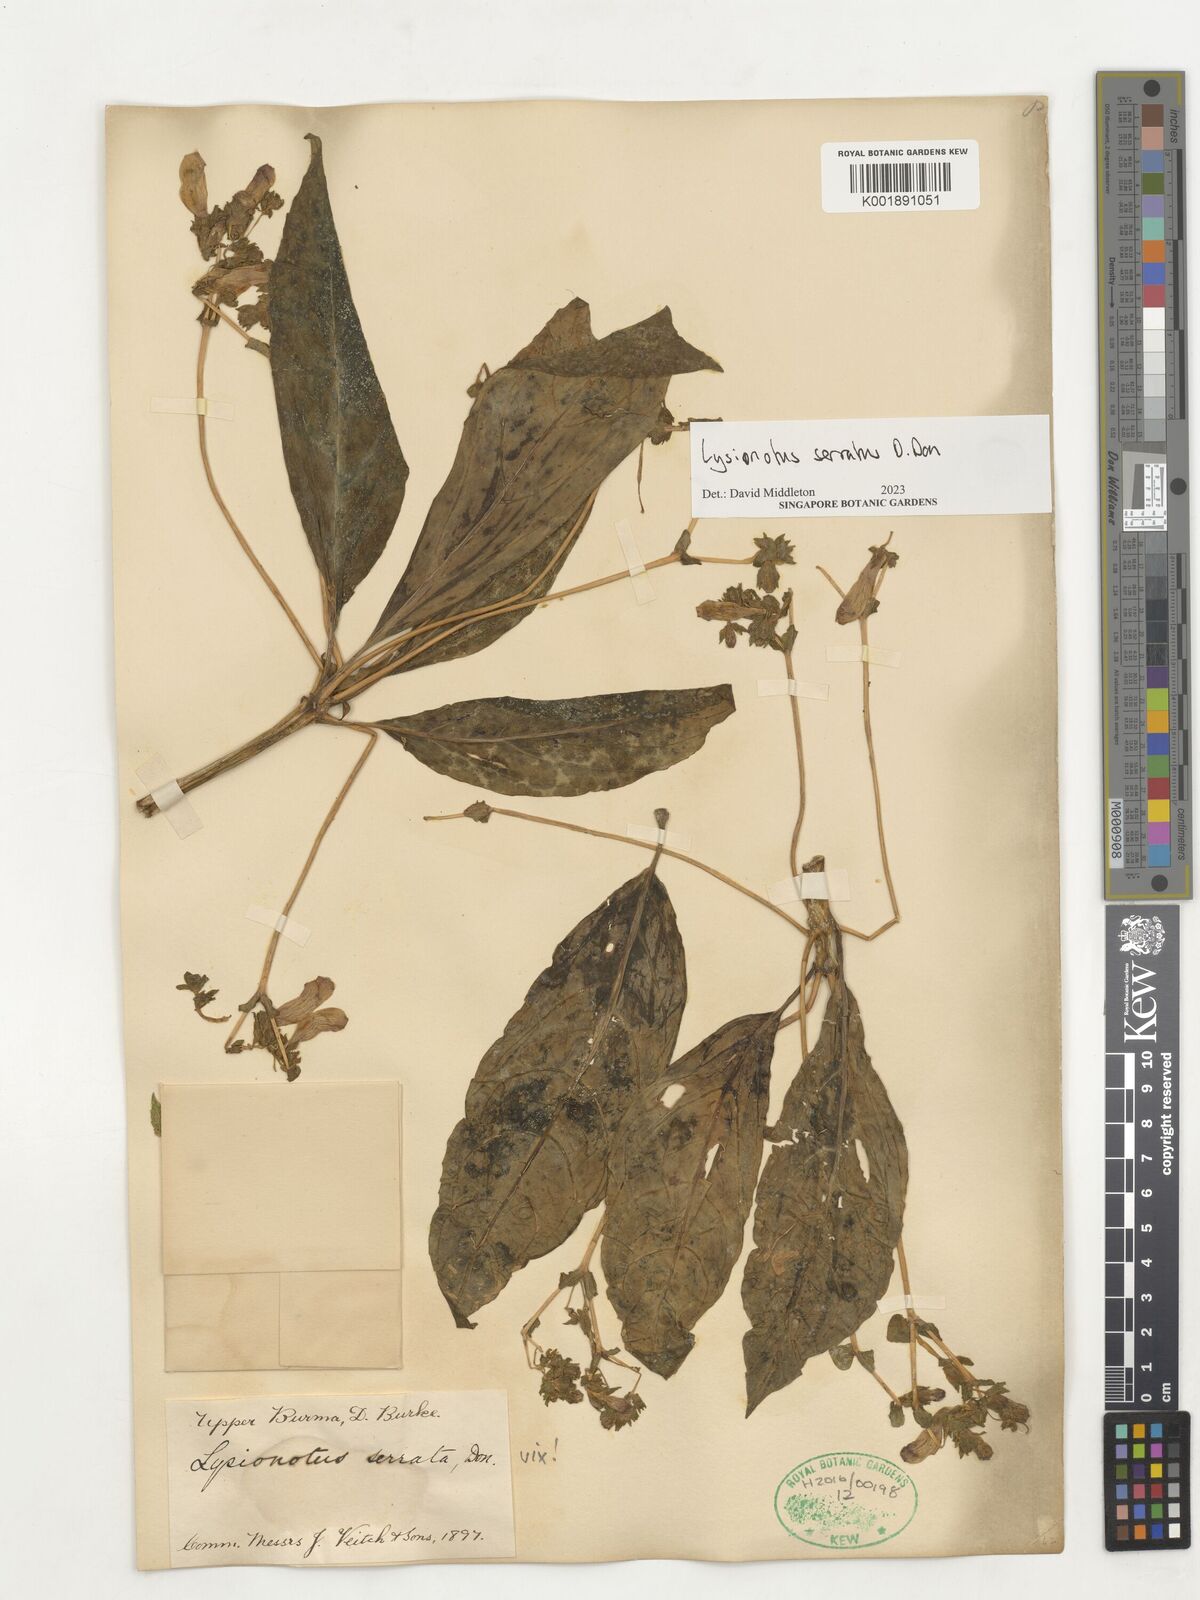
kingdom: Plantae
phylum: Tracheophyta
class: Magnoliopsida
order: Lamiales
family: Gesneriaceae
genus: Lysionotus
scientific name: Lysionotus serratus
